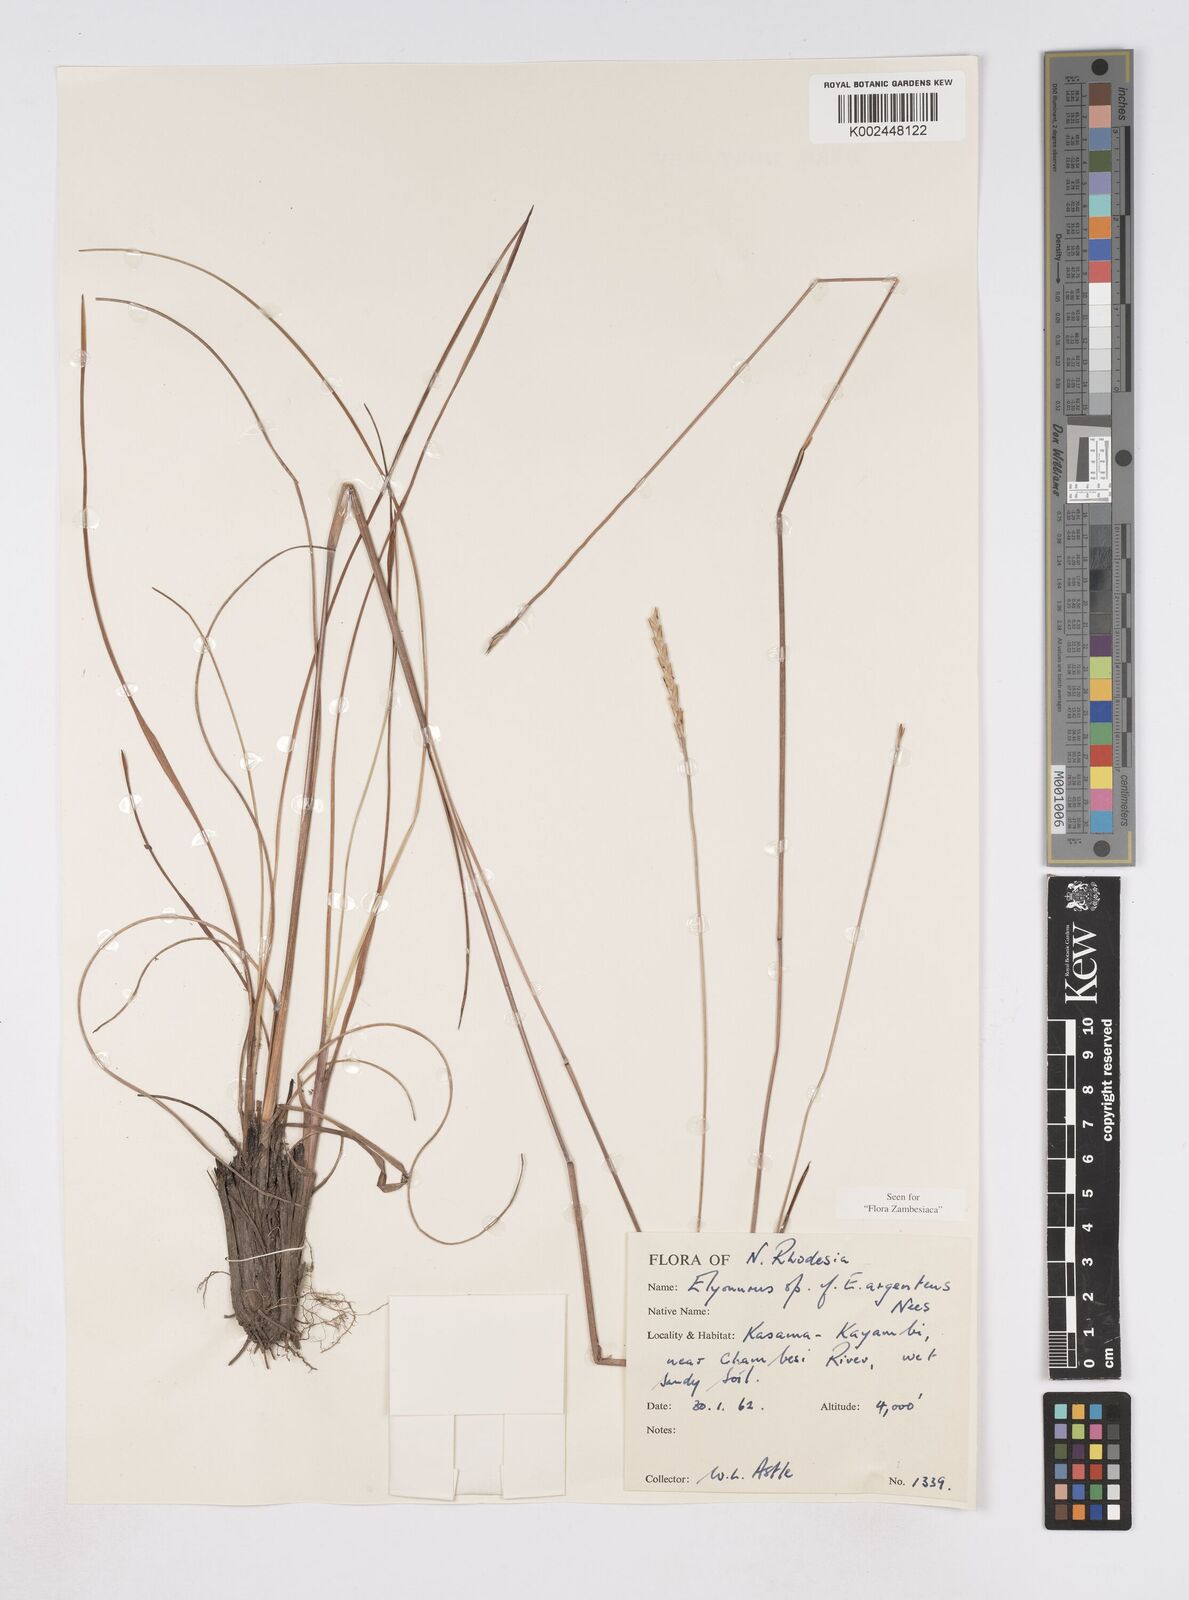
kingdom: Plantae
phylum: Tracheophyta
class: Liliopsida
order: Poales
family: Poaceae
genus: Elionurus
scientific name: Elionurus tripsacoides
